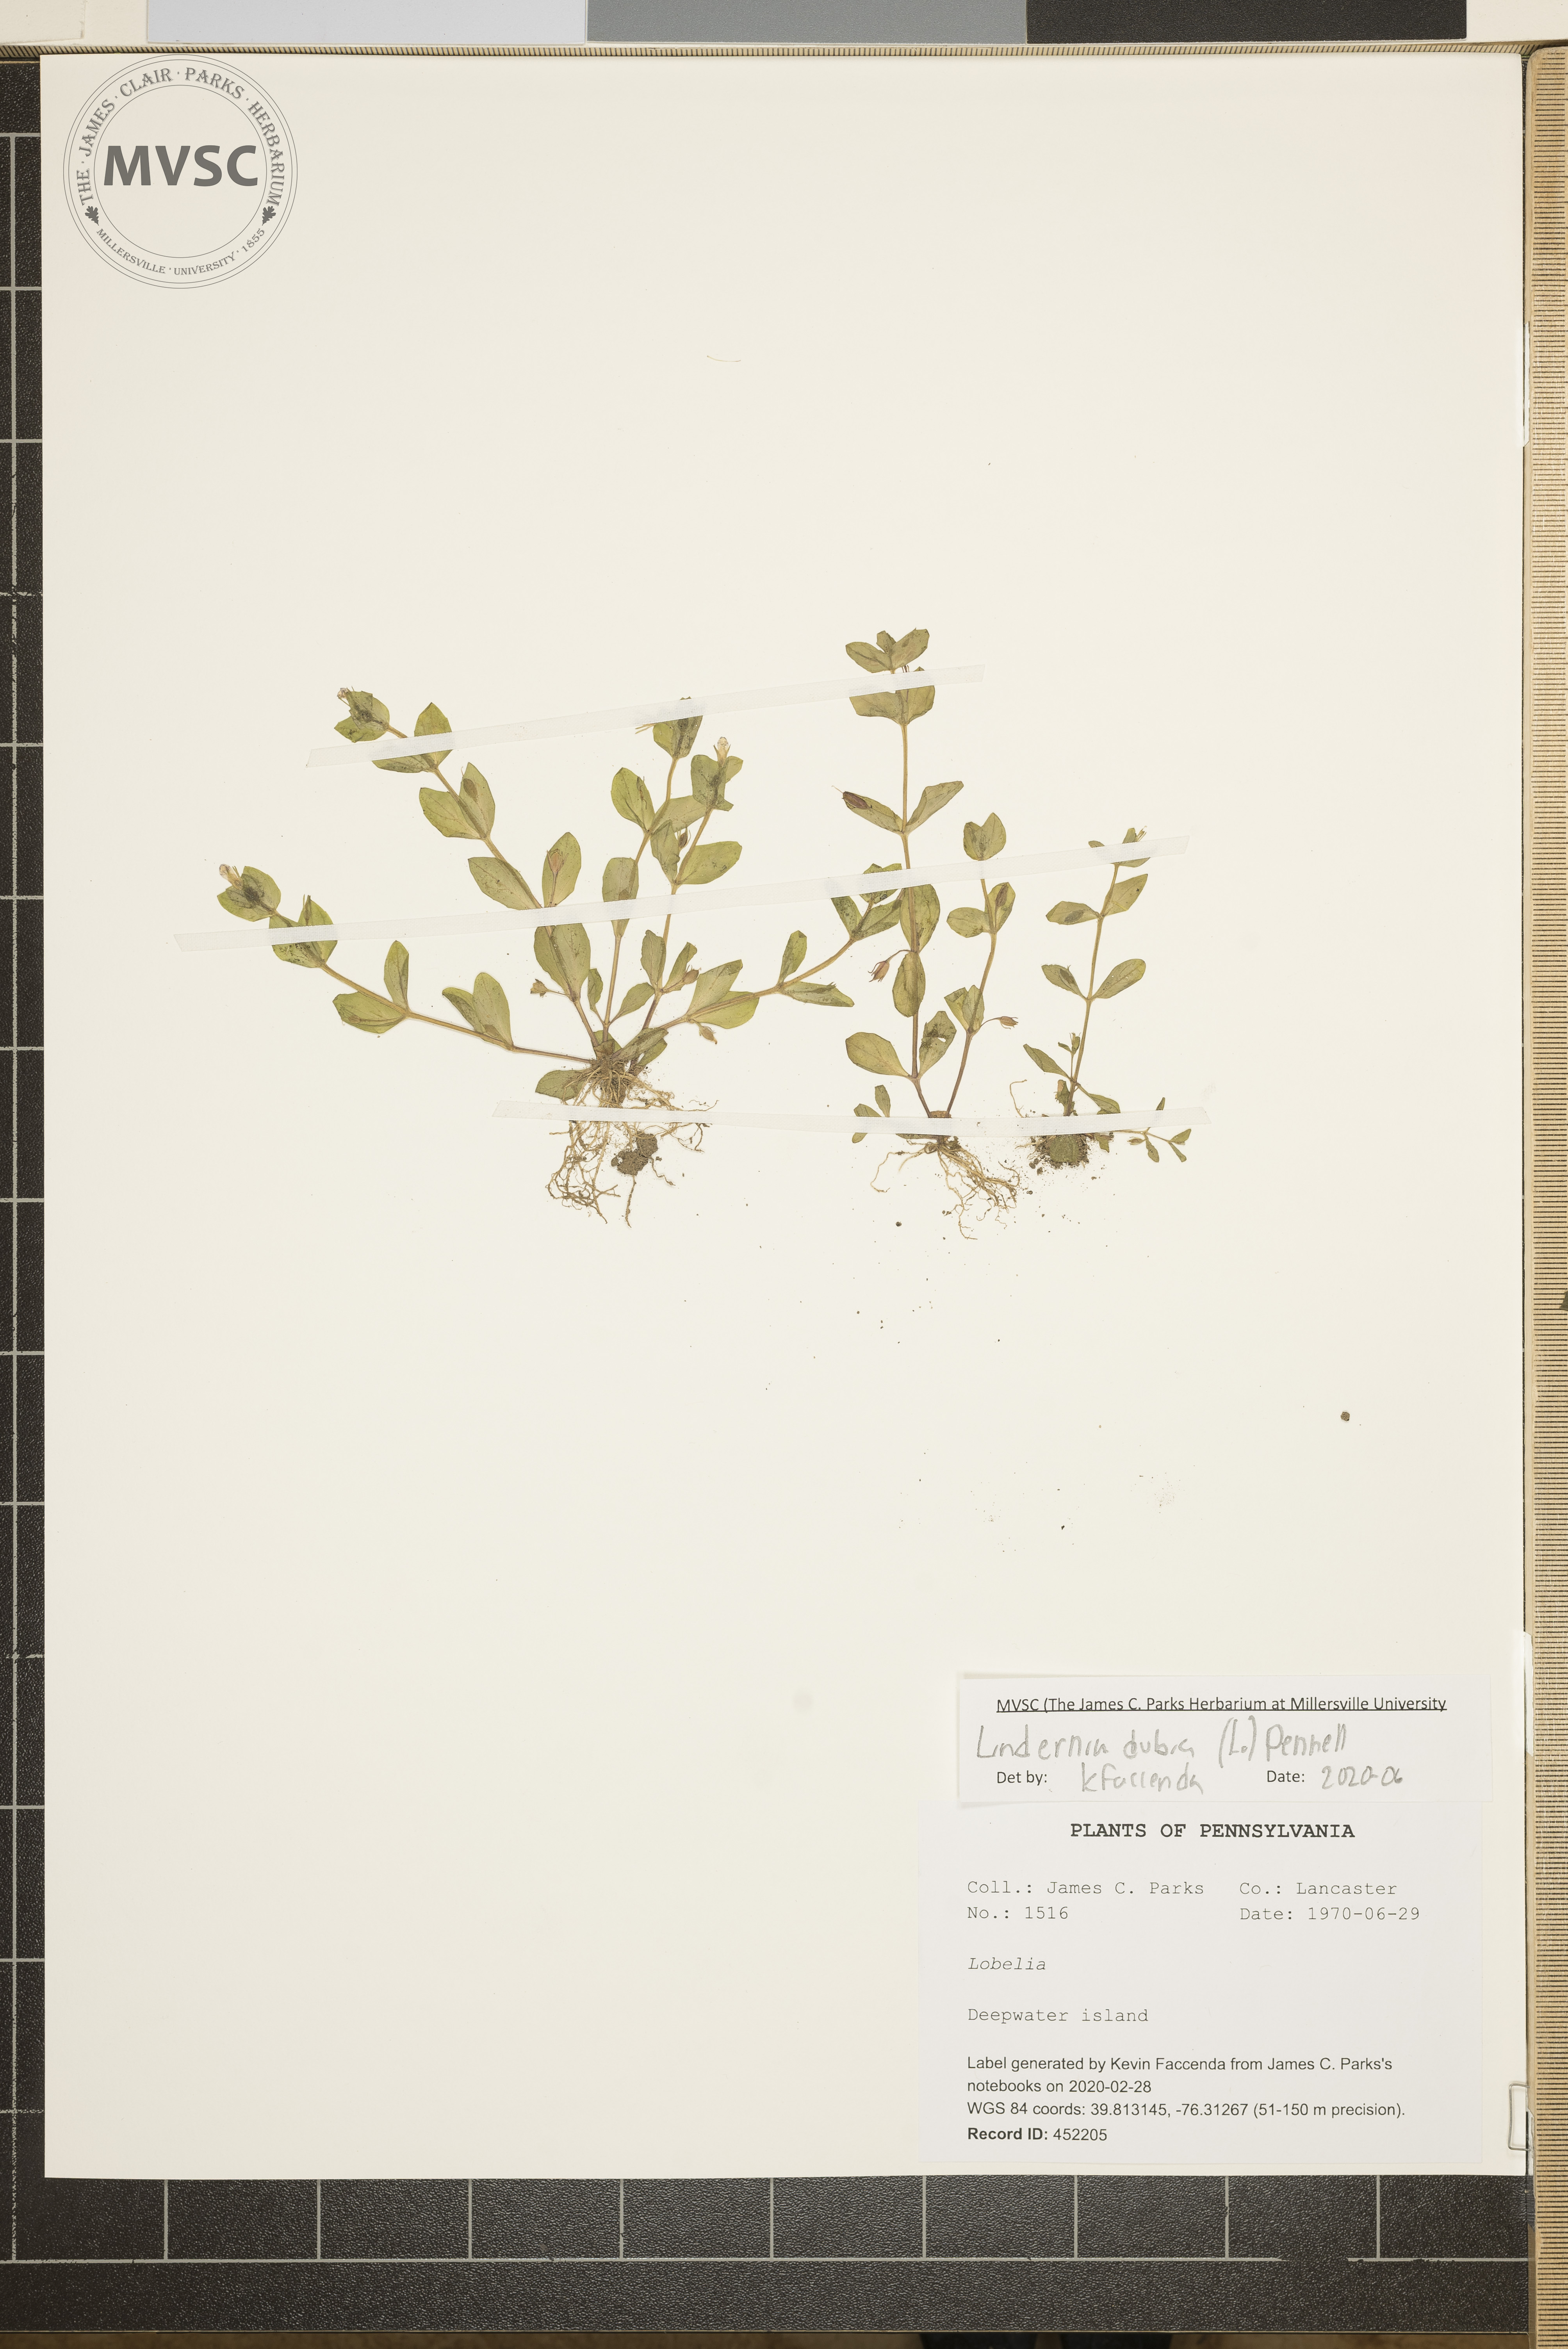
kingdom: Plantae
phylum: Tracheophyta
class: Magnoliopsida
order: Lamiales
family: Linderniaceae
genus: Lindernia
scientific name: Lindernia dubia
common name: Annual false pimpernel
